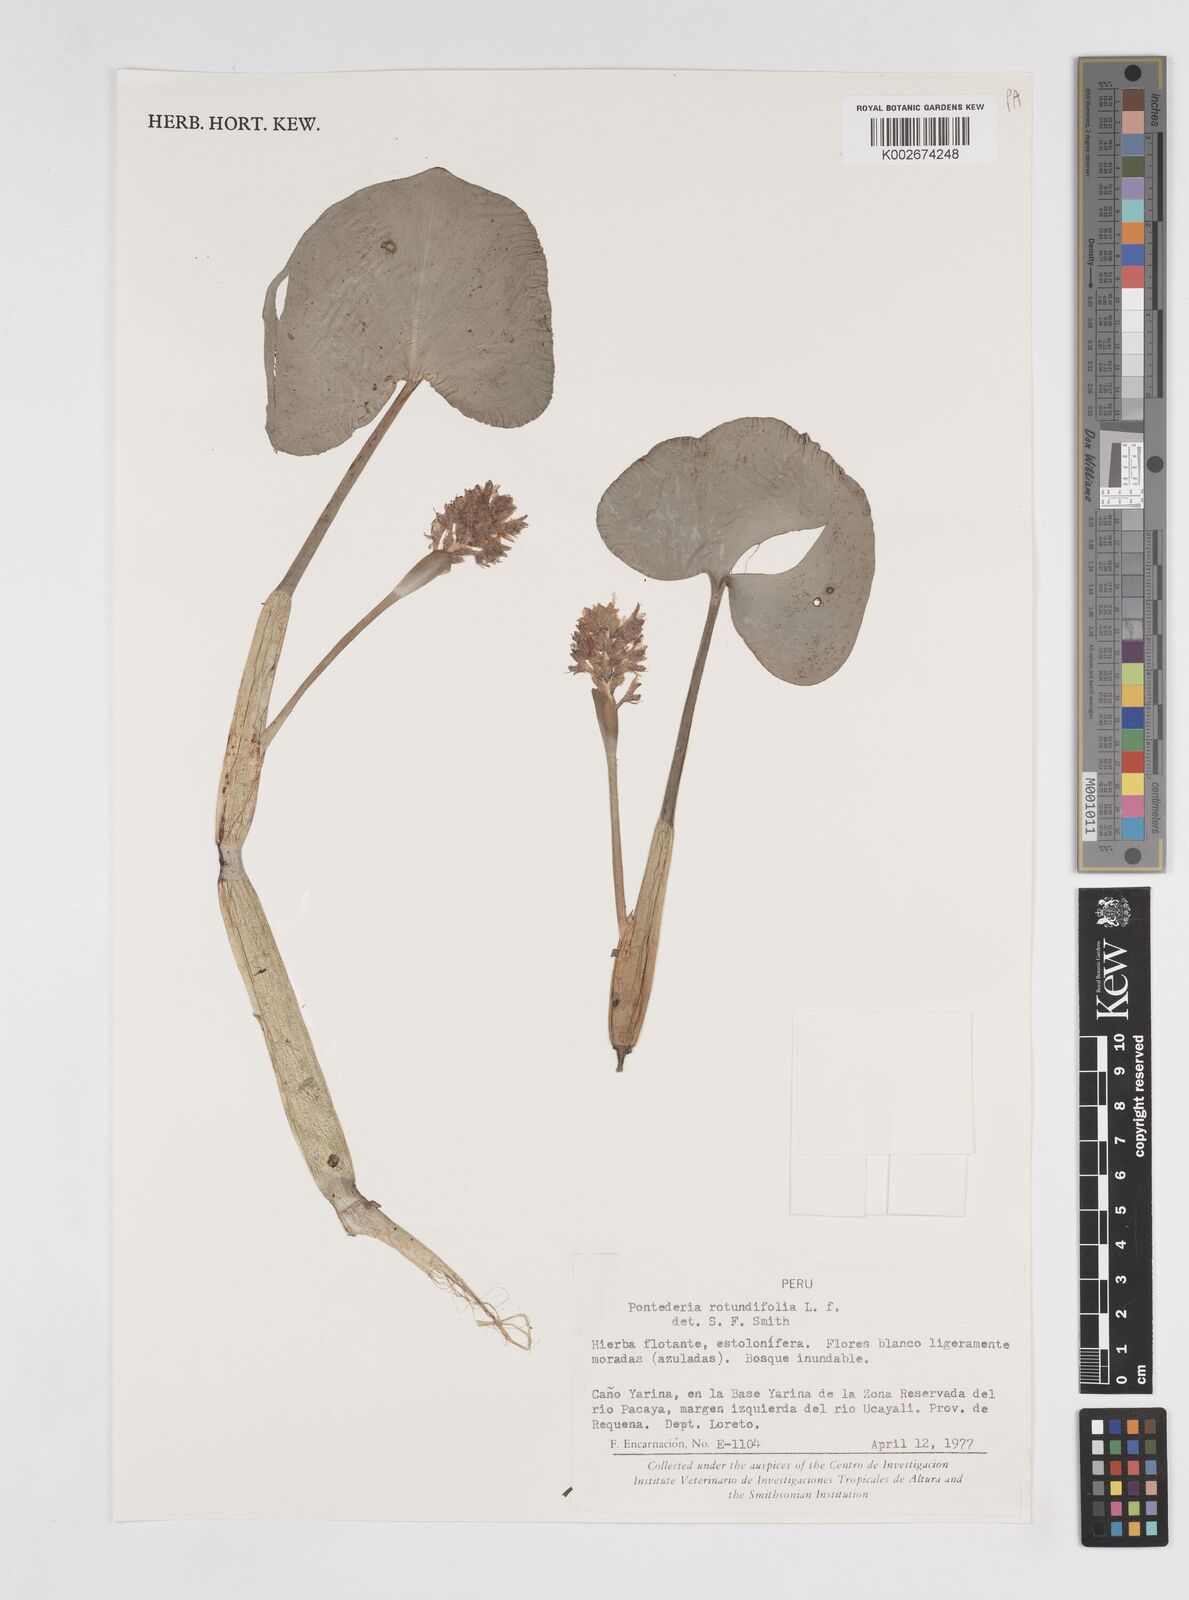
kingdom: Plantae
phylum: Tracheophyta
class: Liliopsida
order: Commelinales
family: Pontederiaceae
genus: Pontederia
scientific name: Pontederia rotundifolia
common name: Tropical pickerel-weed
